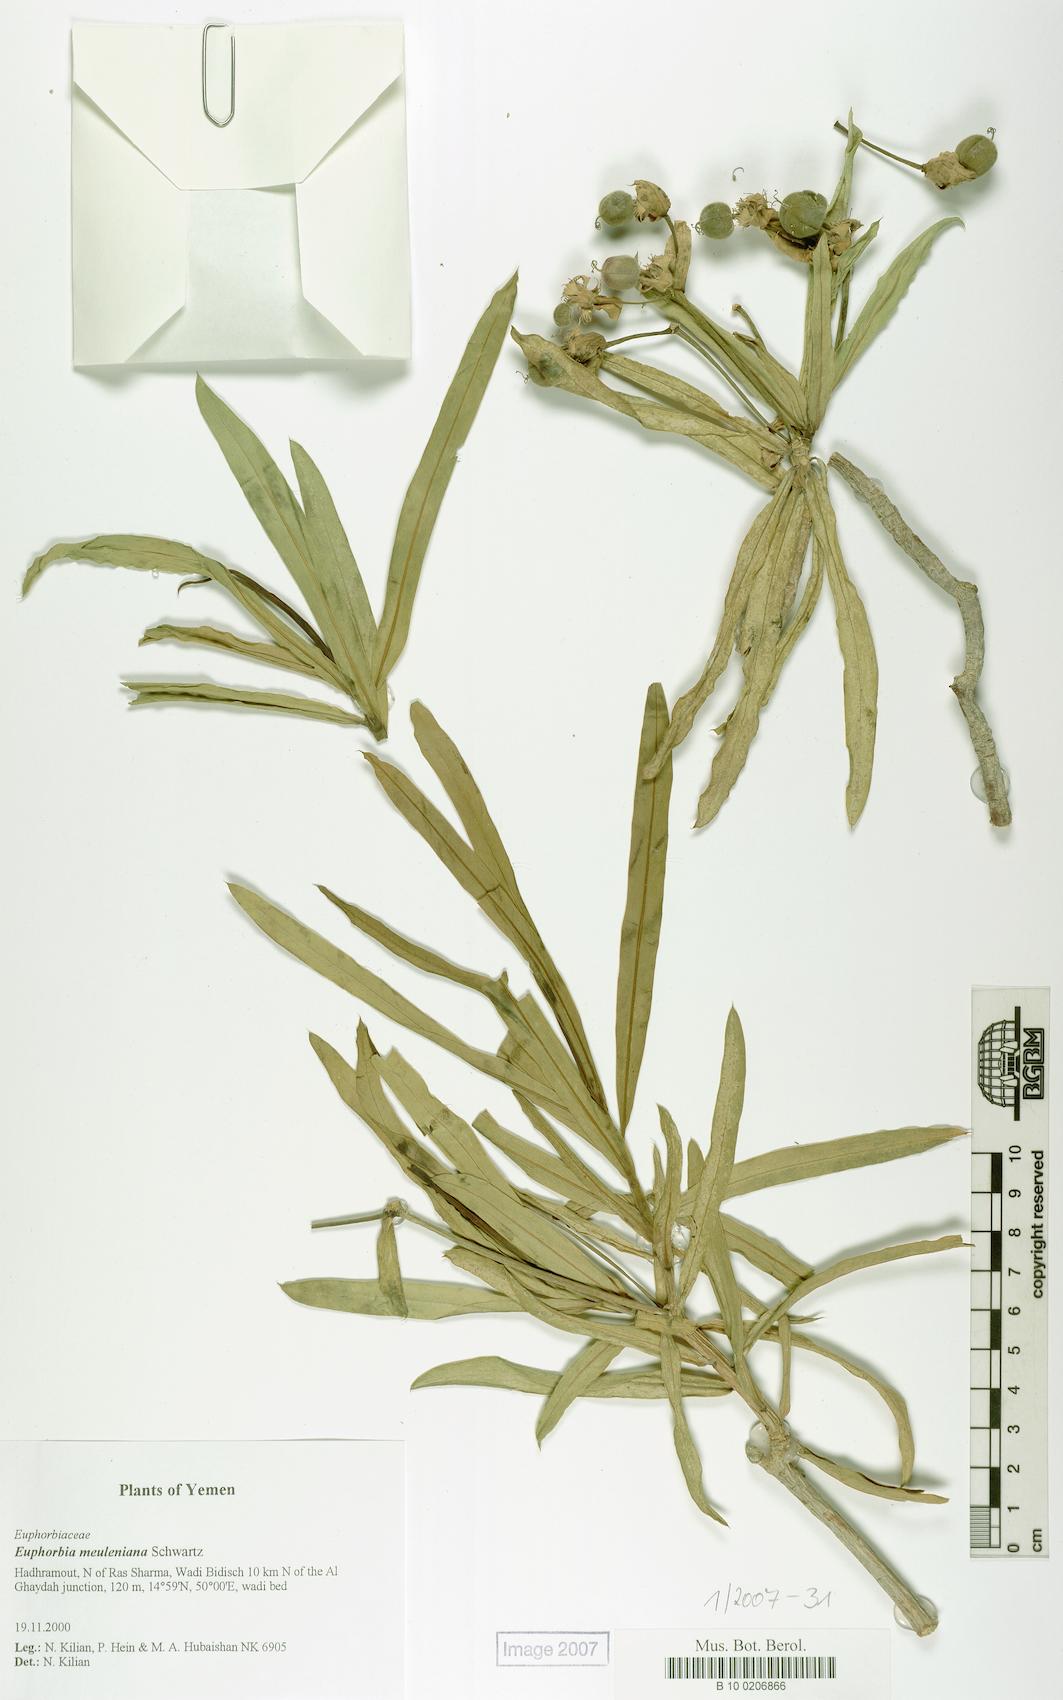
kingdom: Plantae
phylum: Tracheophyta
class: Magnoliopsida
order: Malpighiales
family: Euphorbiaceae
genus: Euphorbia
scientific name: Euphorbia meuleniana
